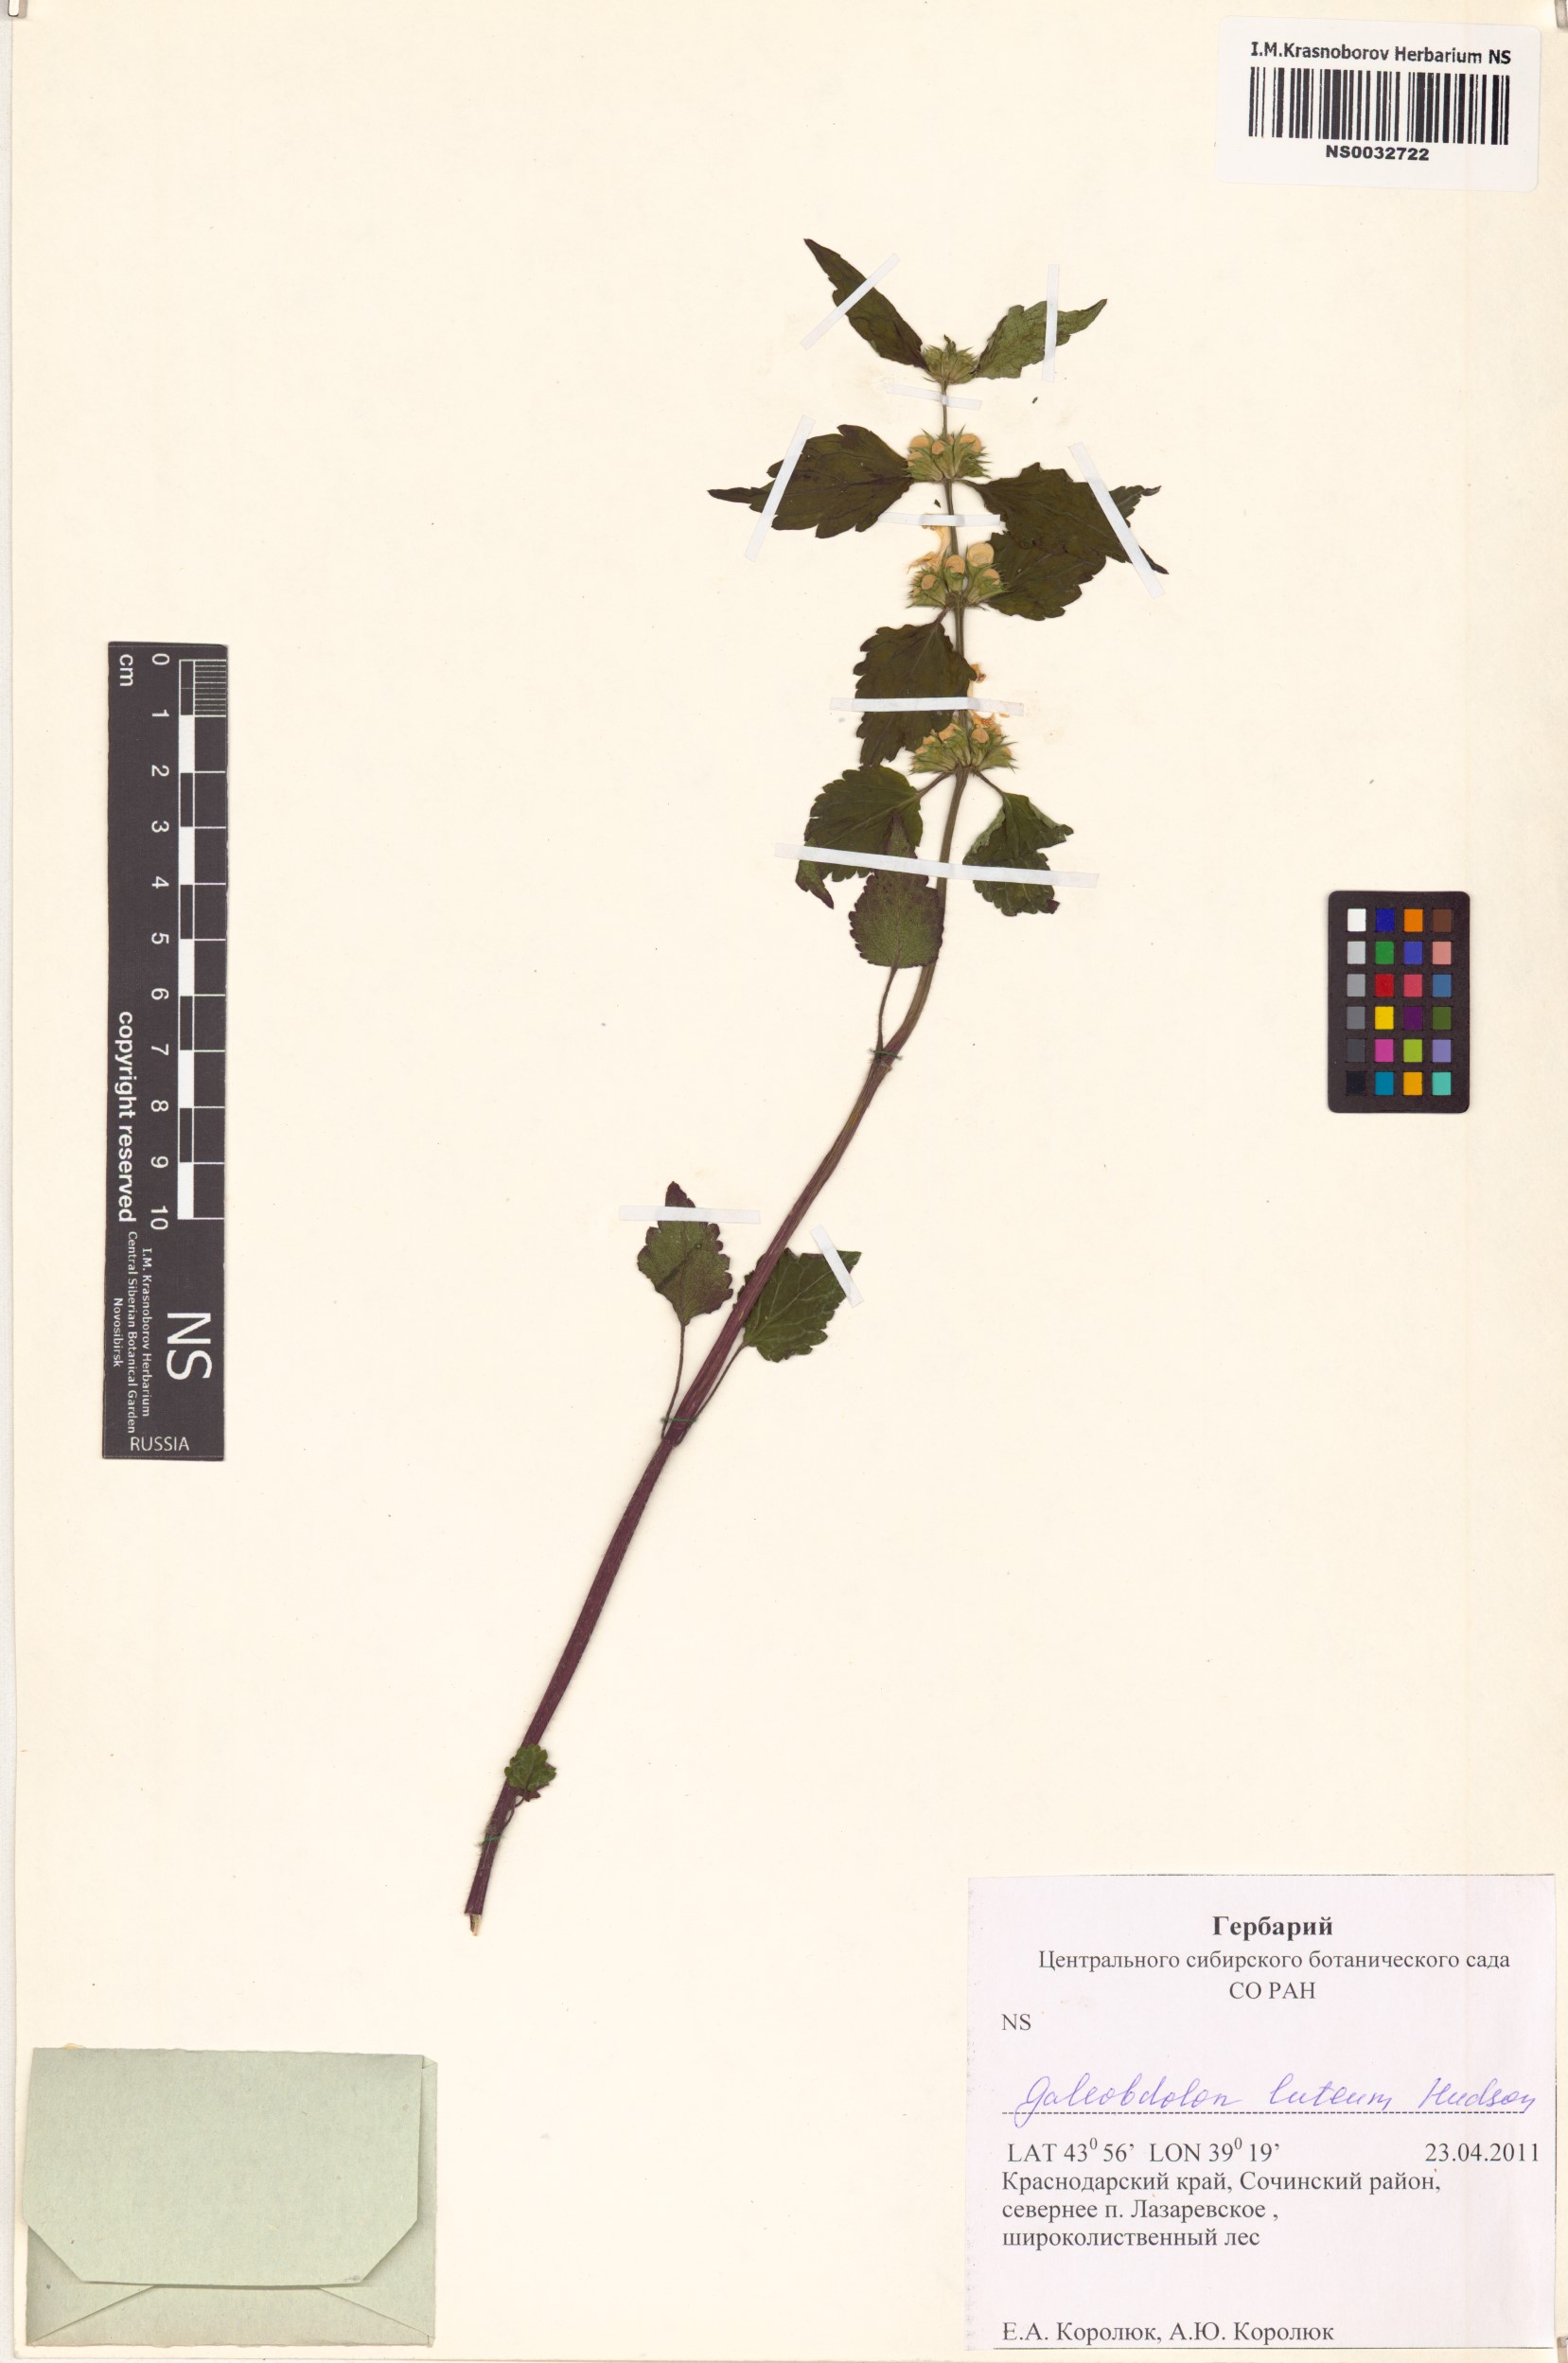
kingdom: Plantae
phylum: Tracheophyta
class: Magnoliopsida
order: Lamiales
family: Lamiaceae
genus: Lamium
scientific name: Lamium galeobdolon
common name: Yellow archangel
